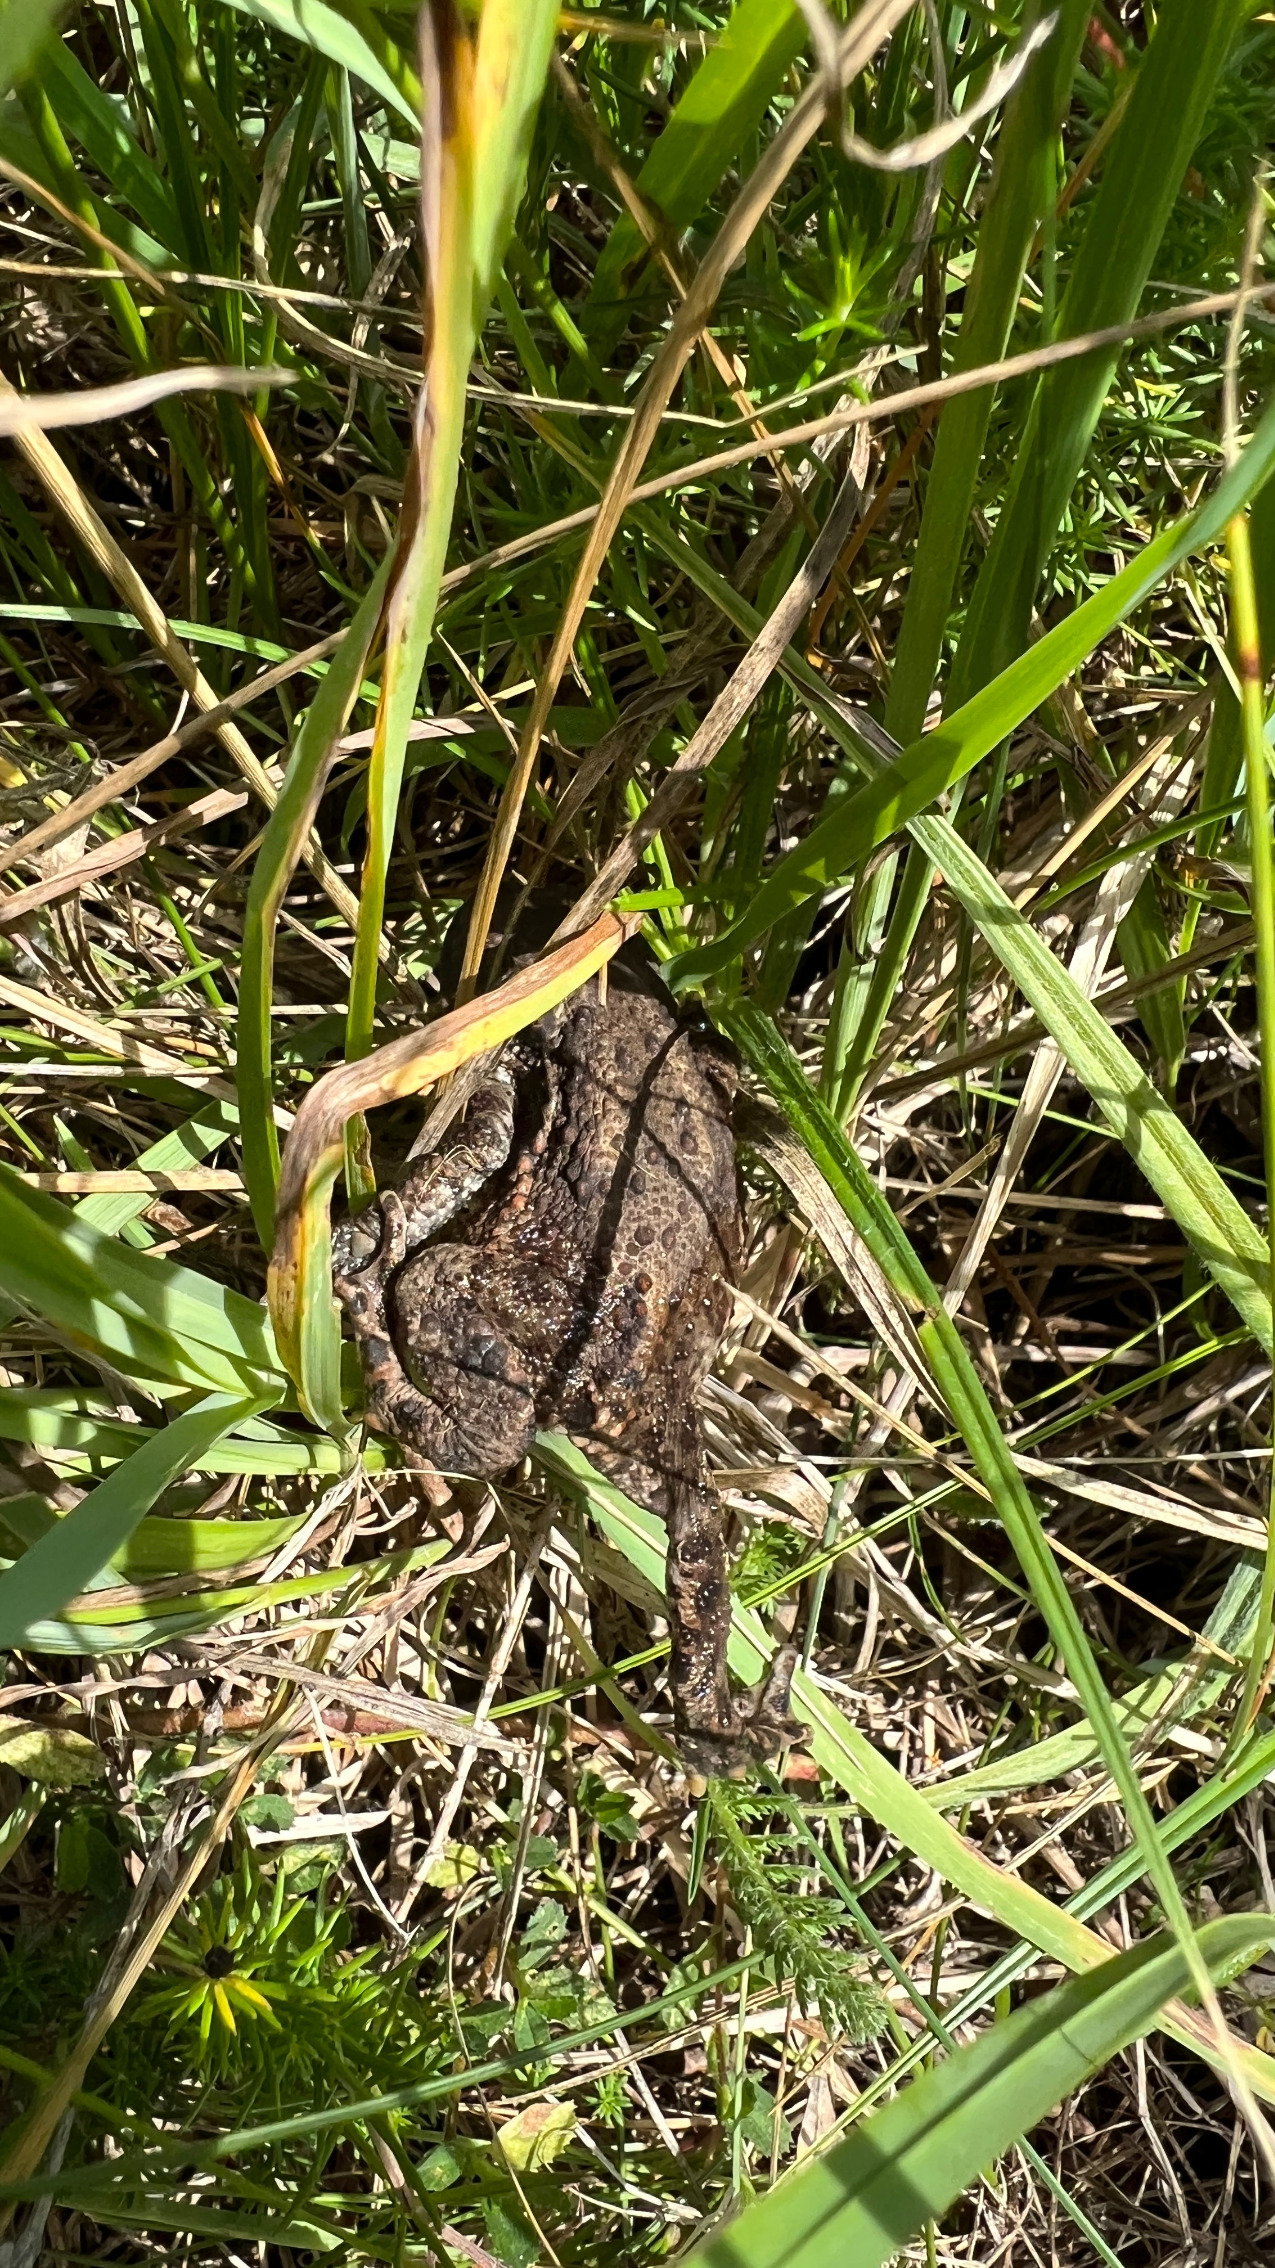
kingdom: Animalia
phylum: Chordata
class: Amphibia
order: Anura
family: Bufonidae
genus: Bufo
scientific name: Bufo bufo
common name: Skrubtudse
